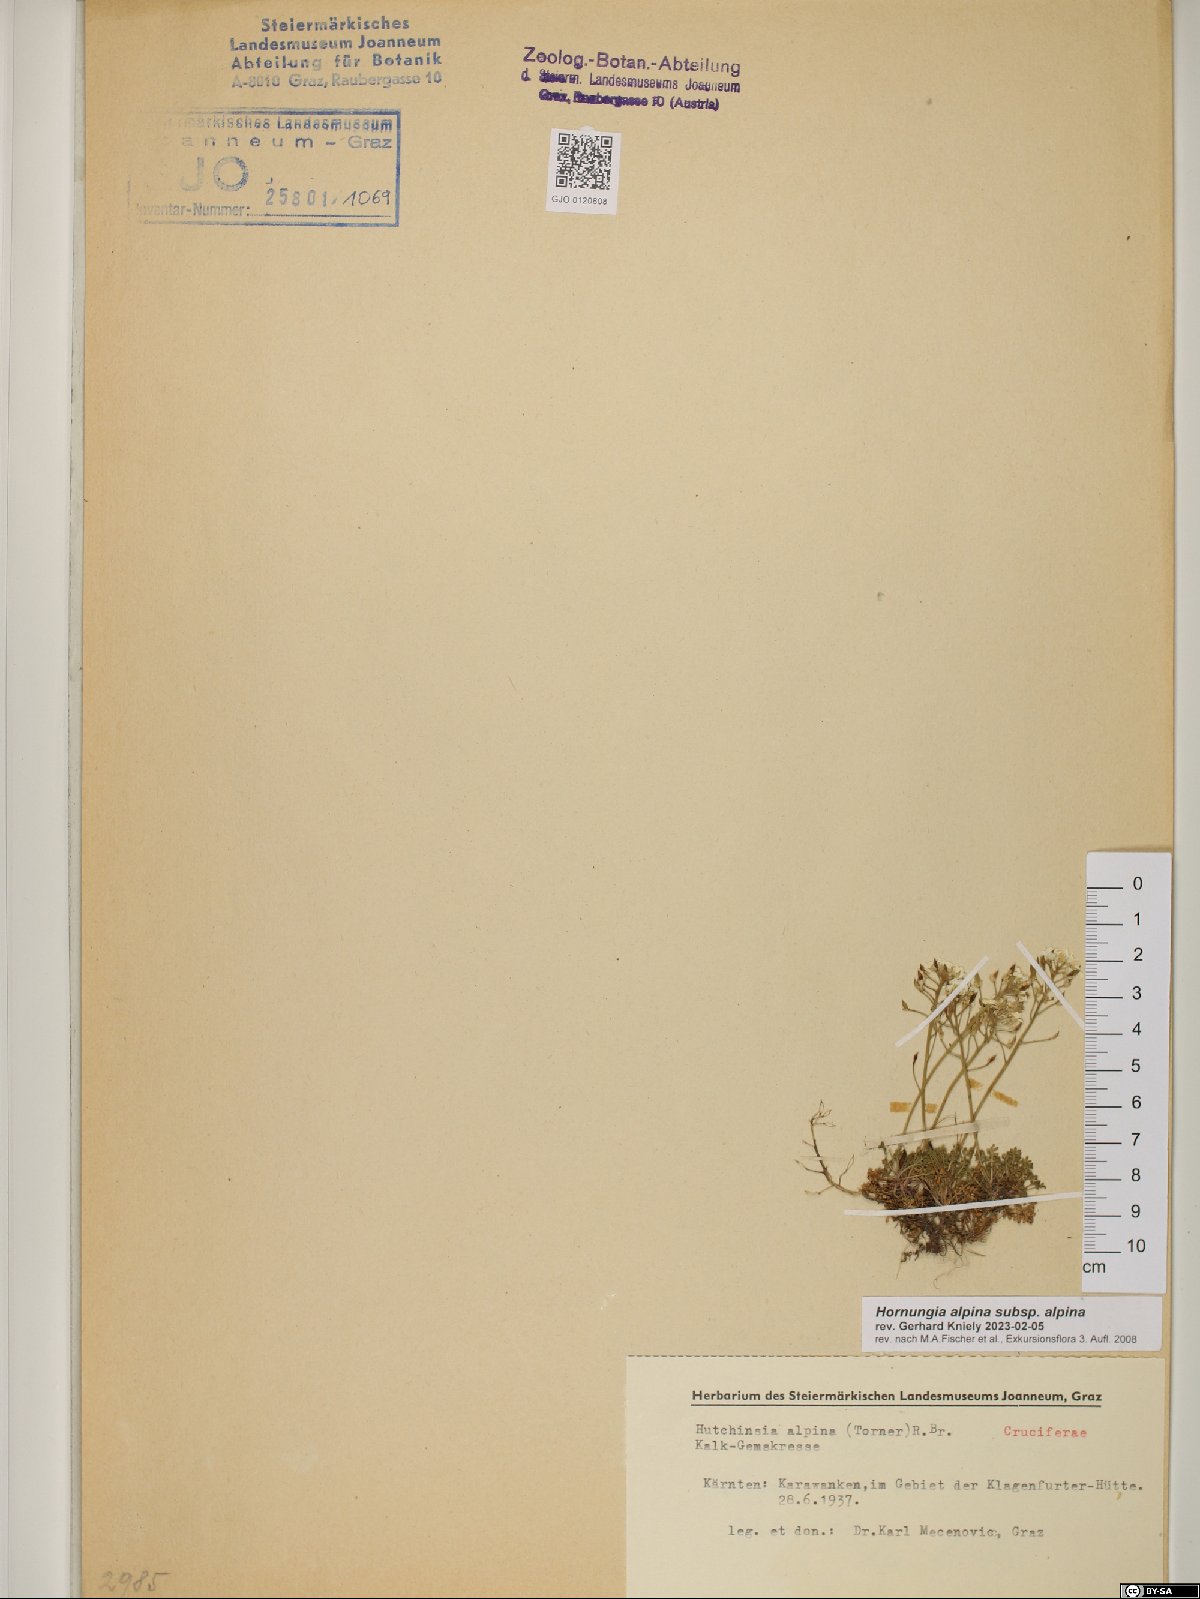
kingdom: Plantae
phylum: Tracheophyta
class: Magnoliopsida
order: Brassicales
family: Brassicaceae
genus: Hornungia
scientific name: Hornungia alpina
